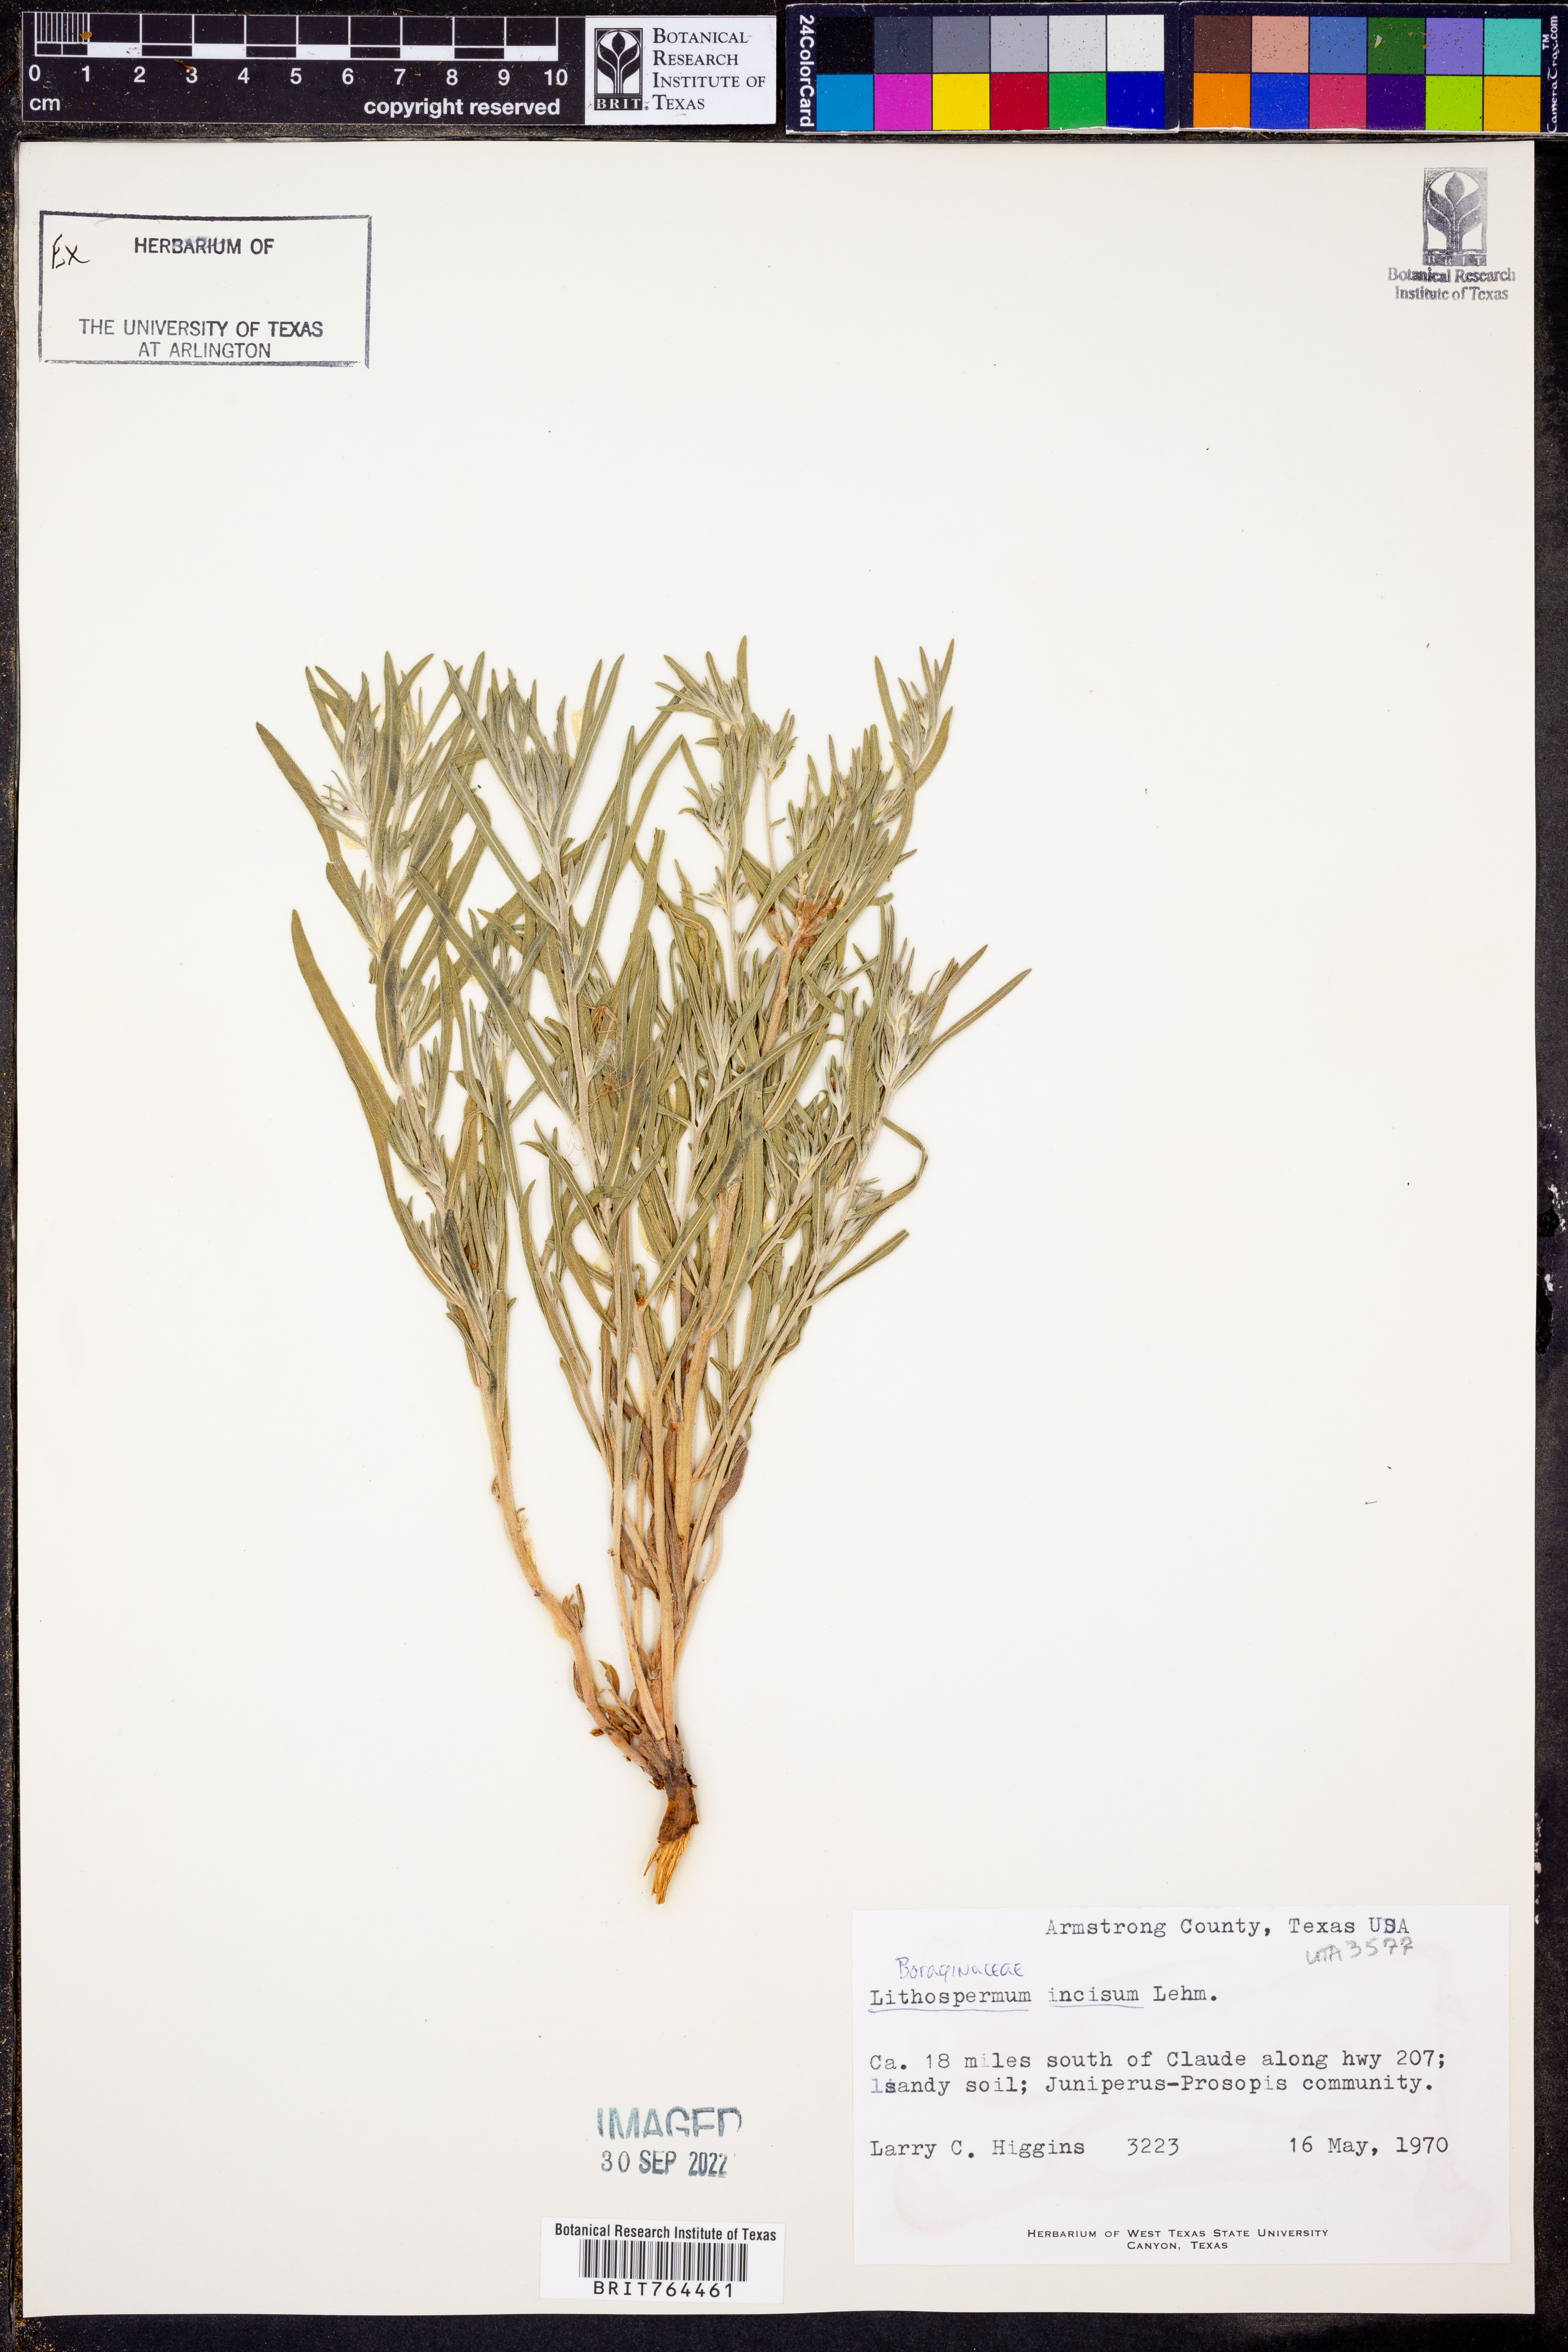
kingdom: Plantae
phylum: Tracheophyta
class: Magnoliopsida
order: Boraginales
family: Boraginaceae
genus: Lithospermum
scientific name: Lithospermum incisum
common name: Fringed gromwell
